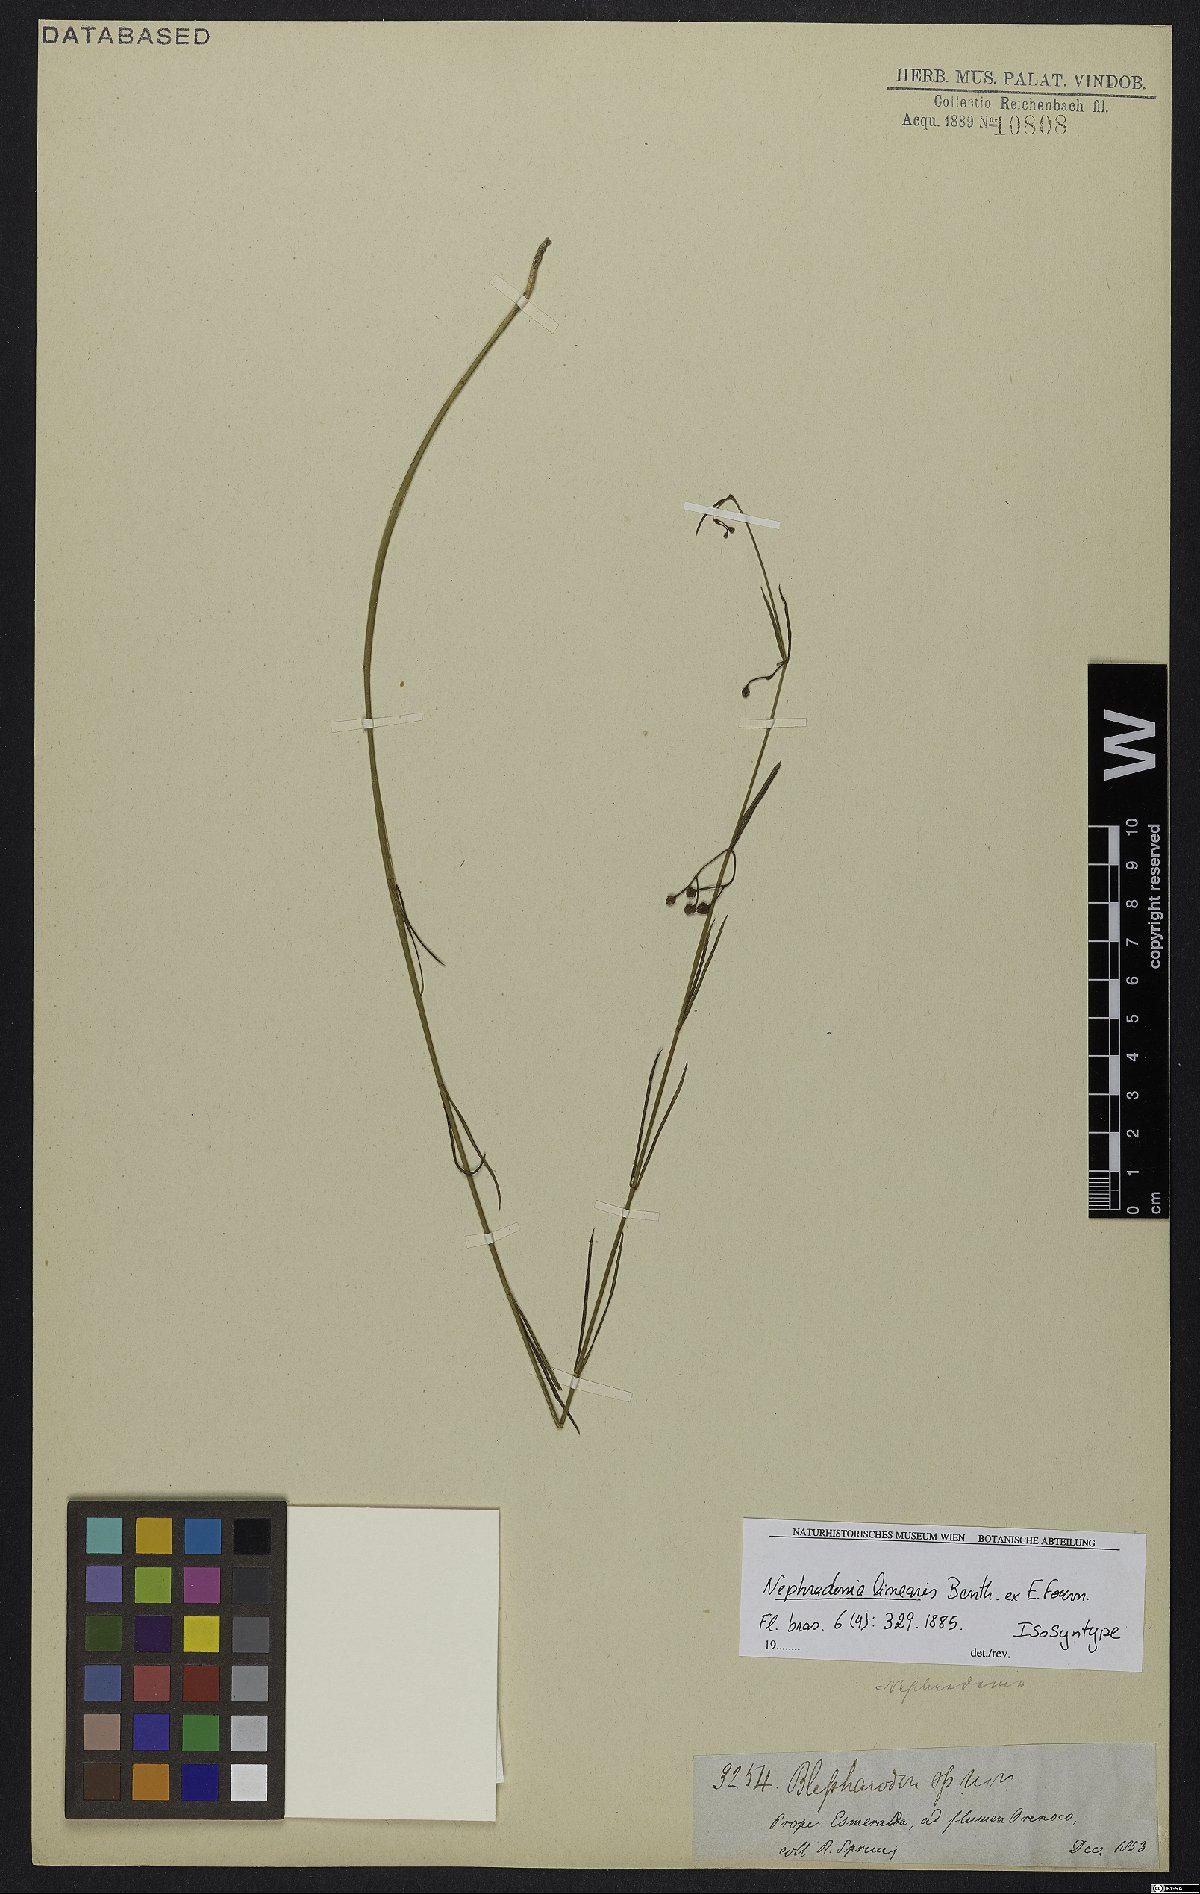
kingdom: Plantae
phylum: Tracheophyta
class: Magnoliopsida
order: Gentianales
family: Apocynaceae
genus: Blepharodon
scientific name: Blepharodon lineare
